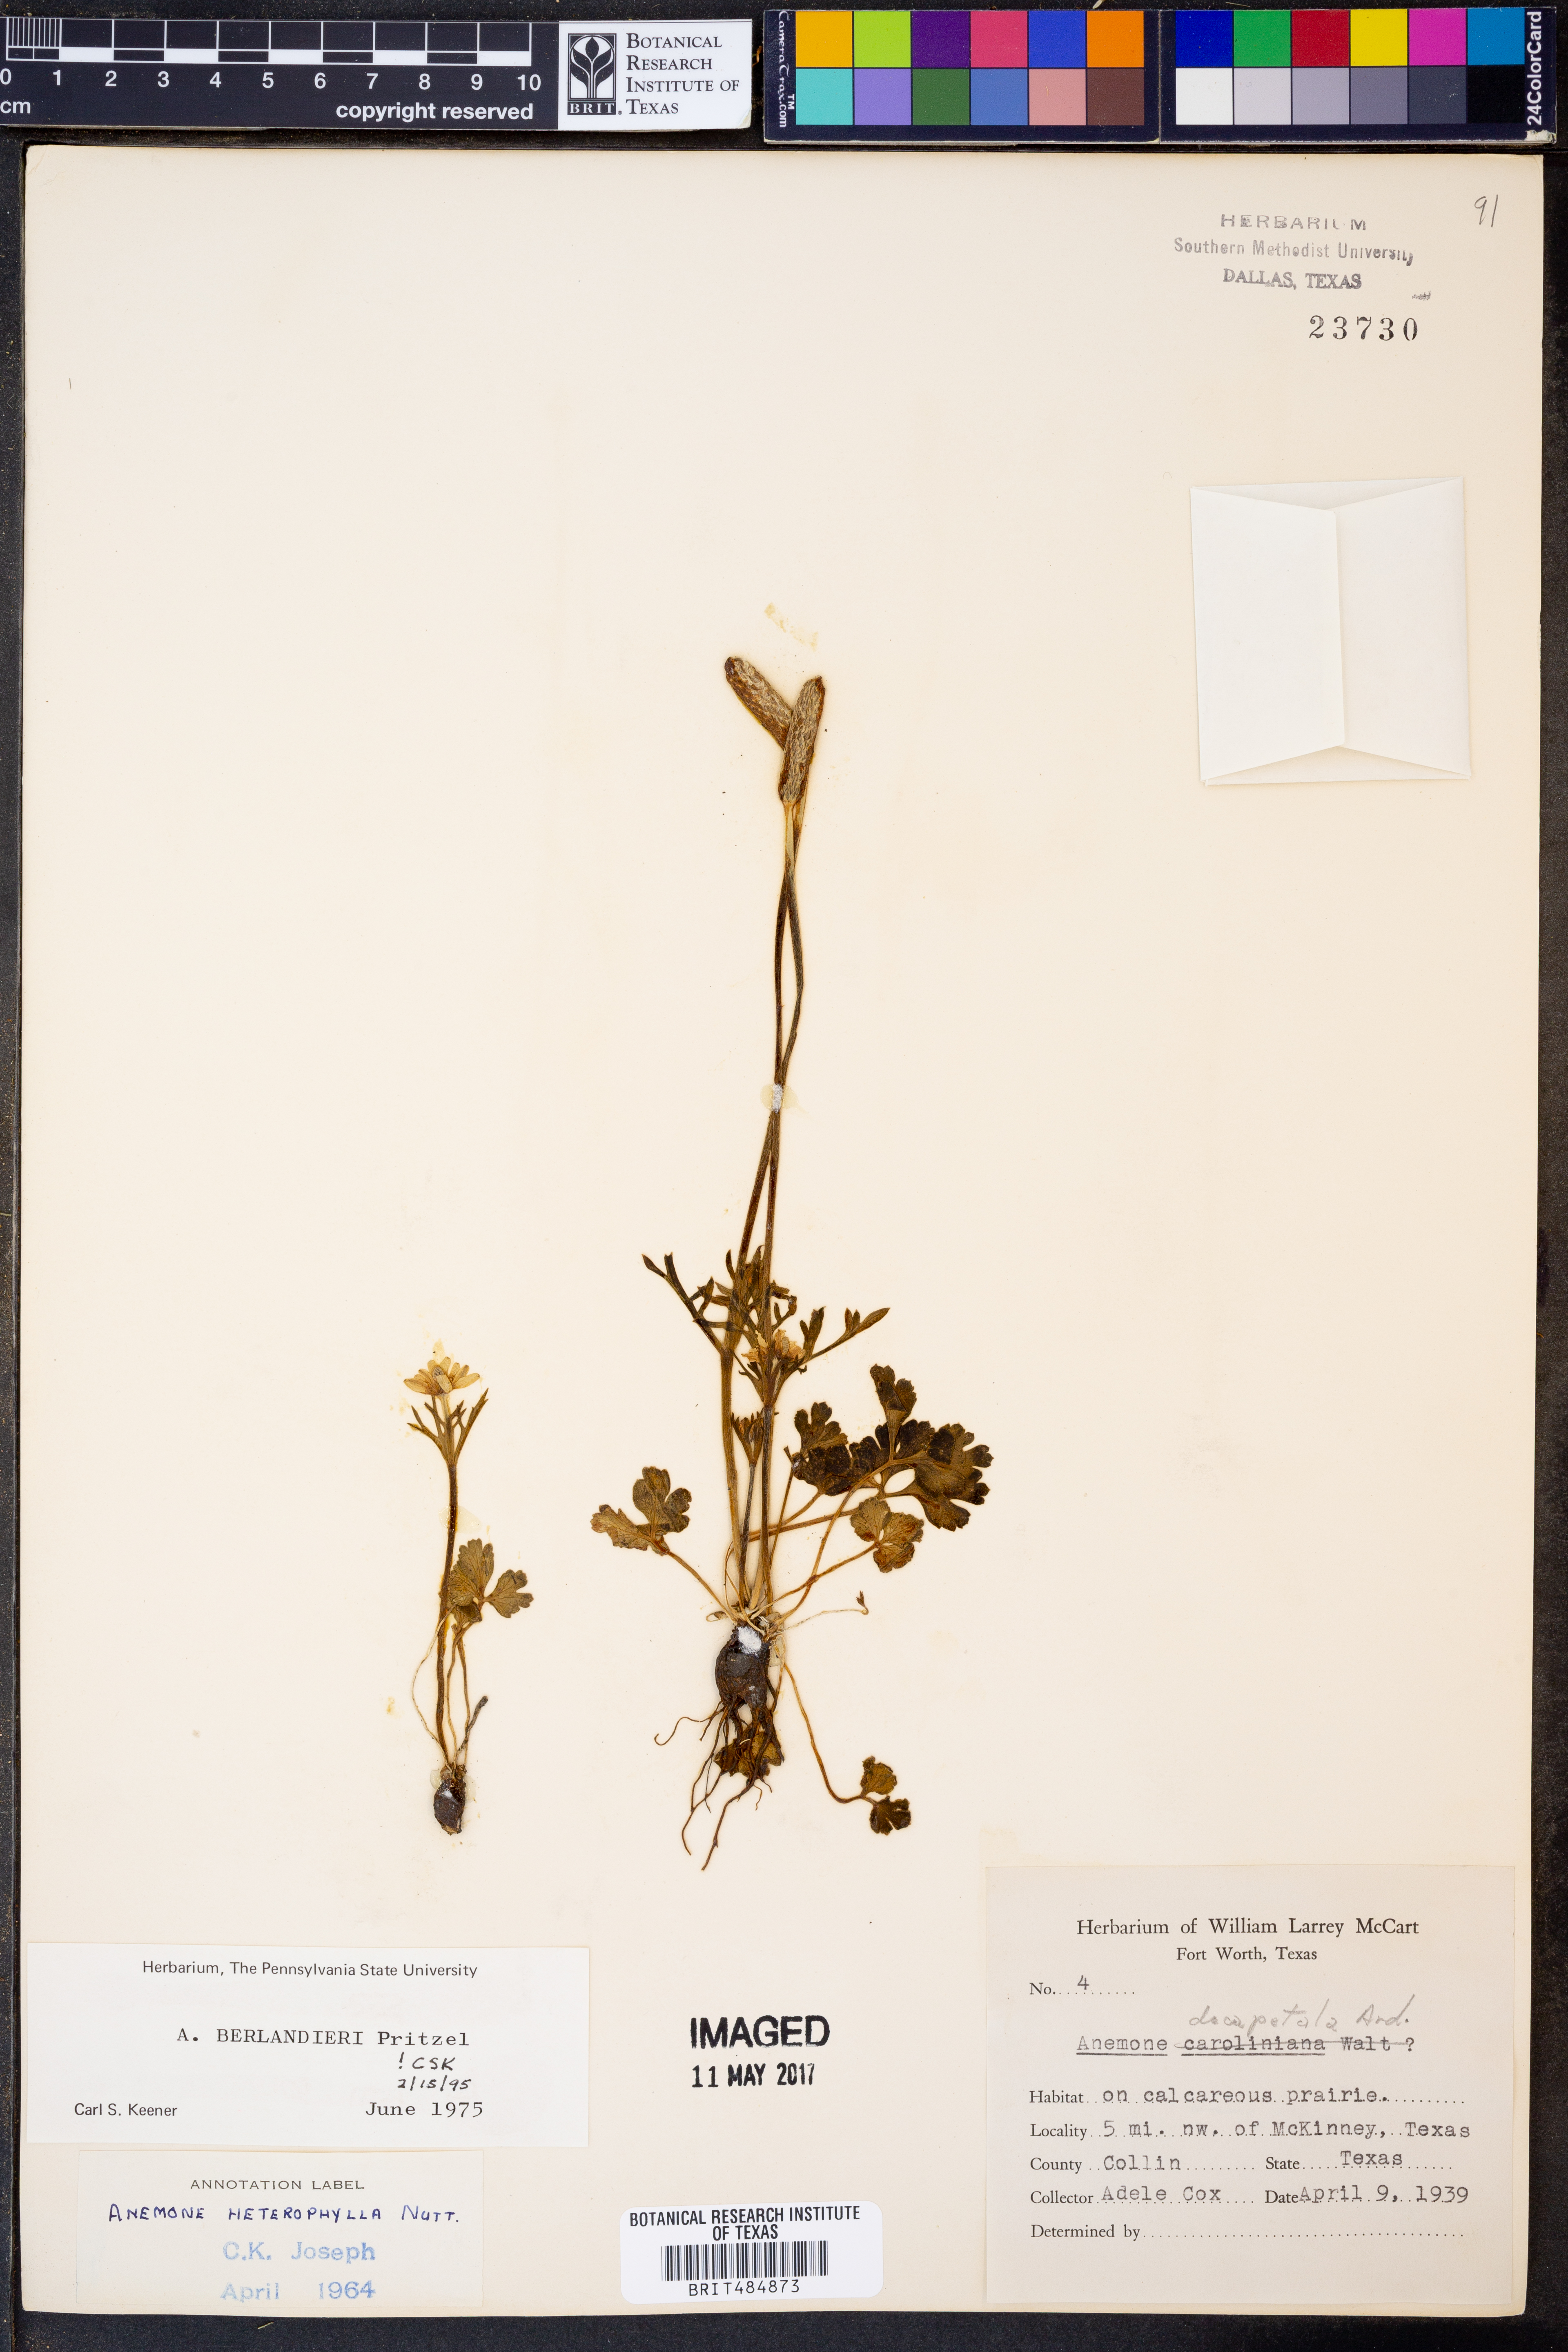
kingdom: Plantae
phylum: Tracheophyta
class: Magnoliopsida
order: Ranunculales
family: Ranunculaceae
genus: Anemone
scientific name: Anemone berlandieri
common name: Ten-petal anemone
